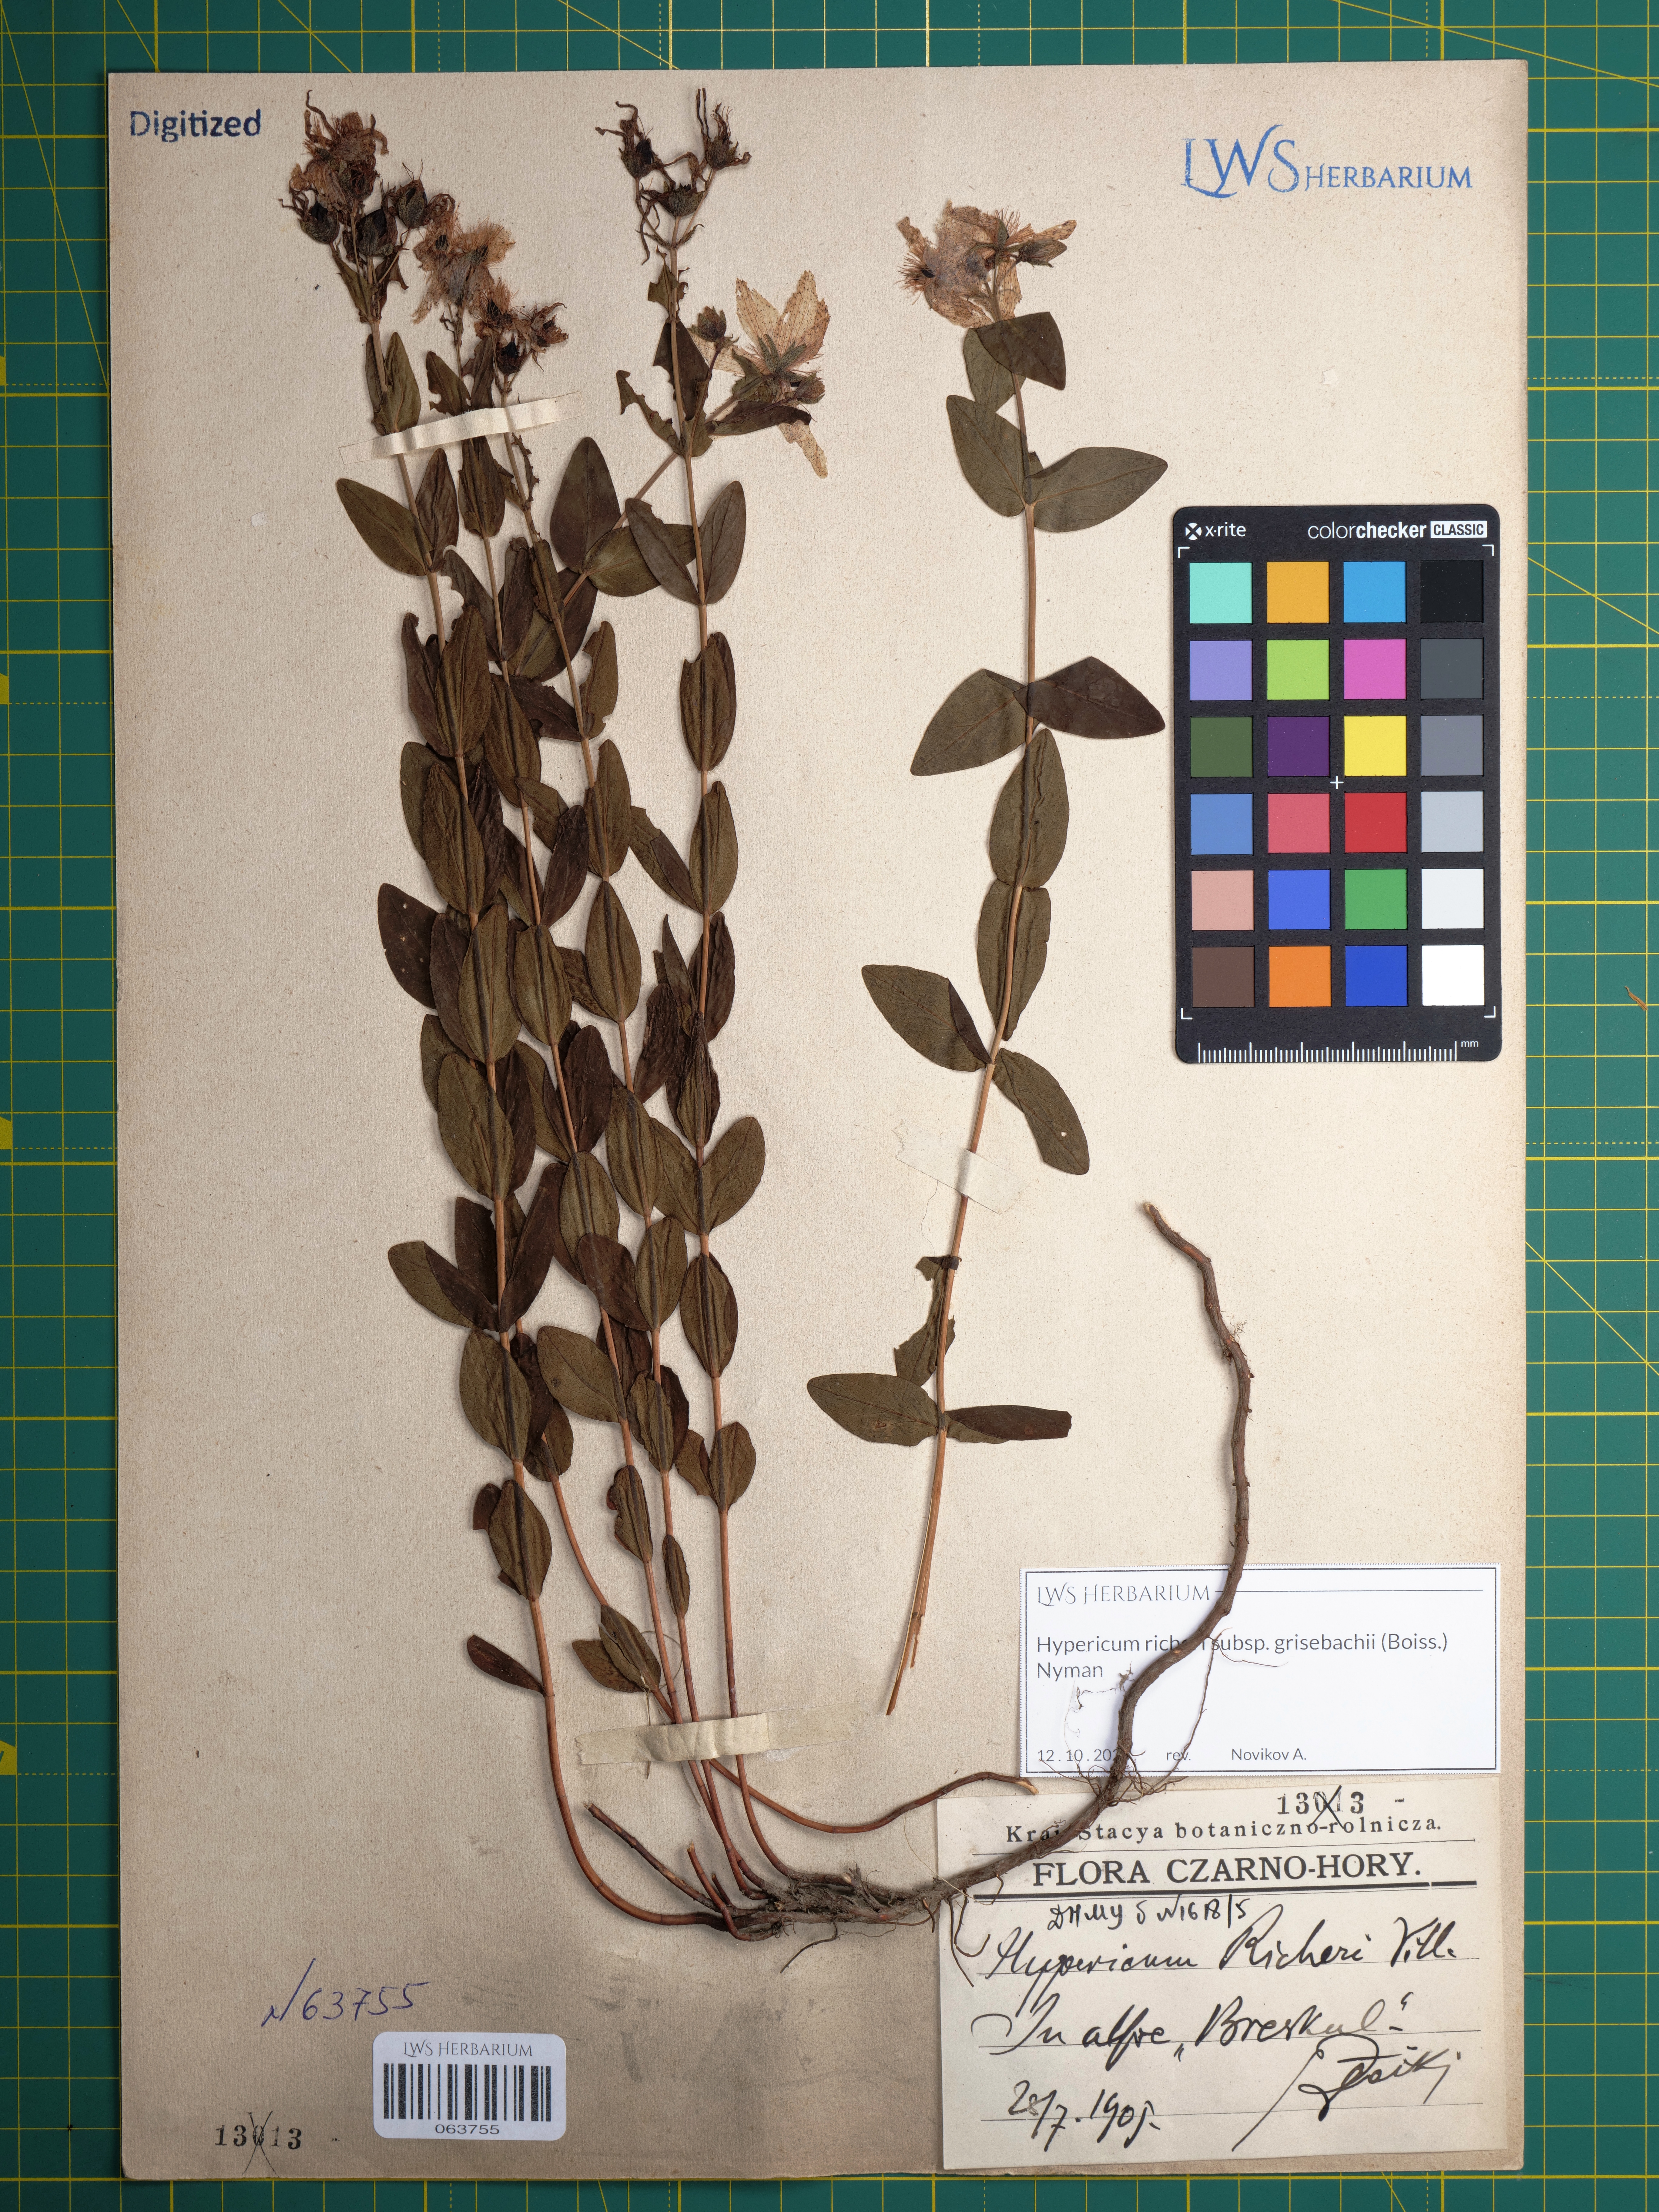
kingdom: Plantae
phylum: Tracheophyta
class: Magnoliopsida
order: Malpighiales
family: Hypericaceae
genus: Hypericum
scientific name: Hypericum richeri
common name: Alpine st john's-wort
